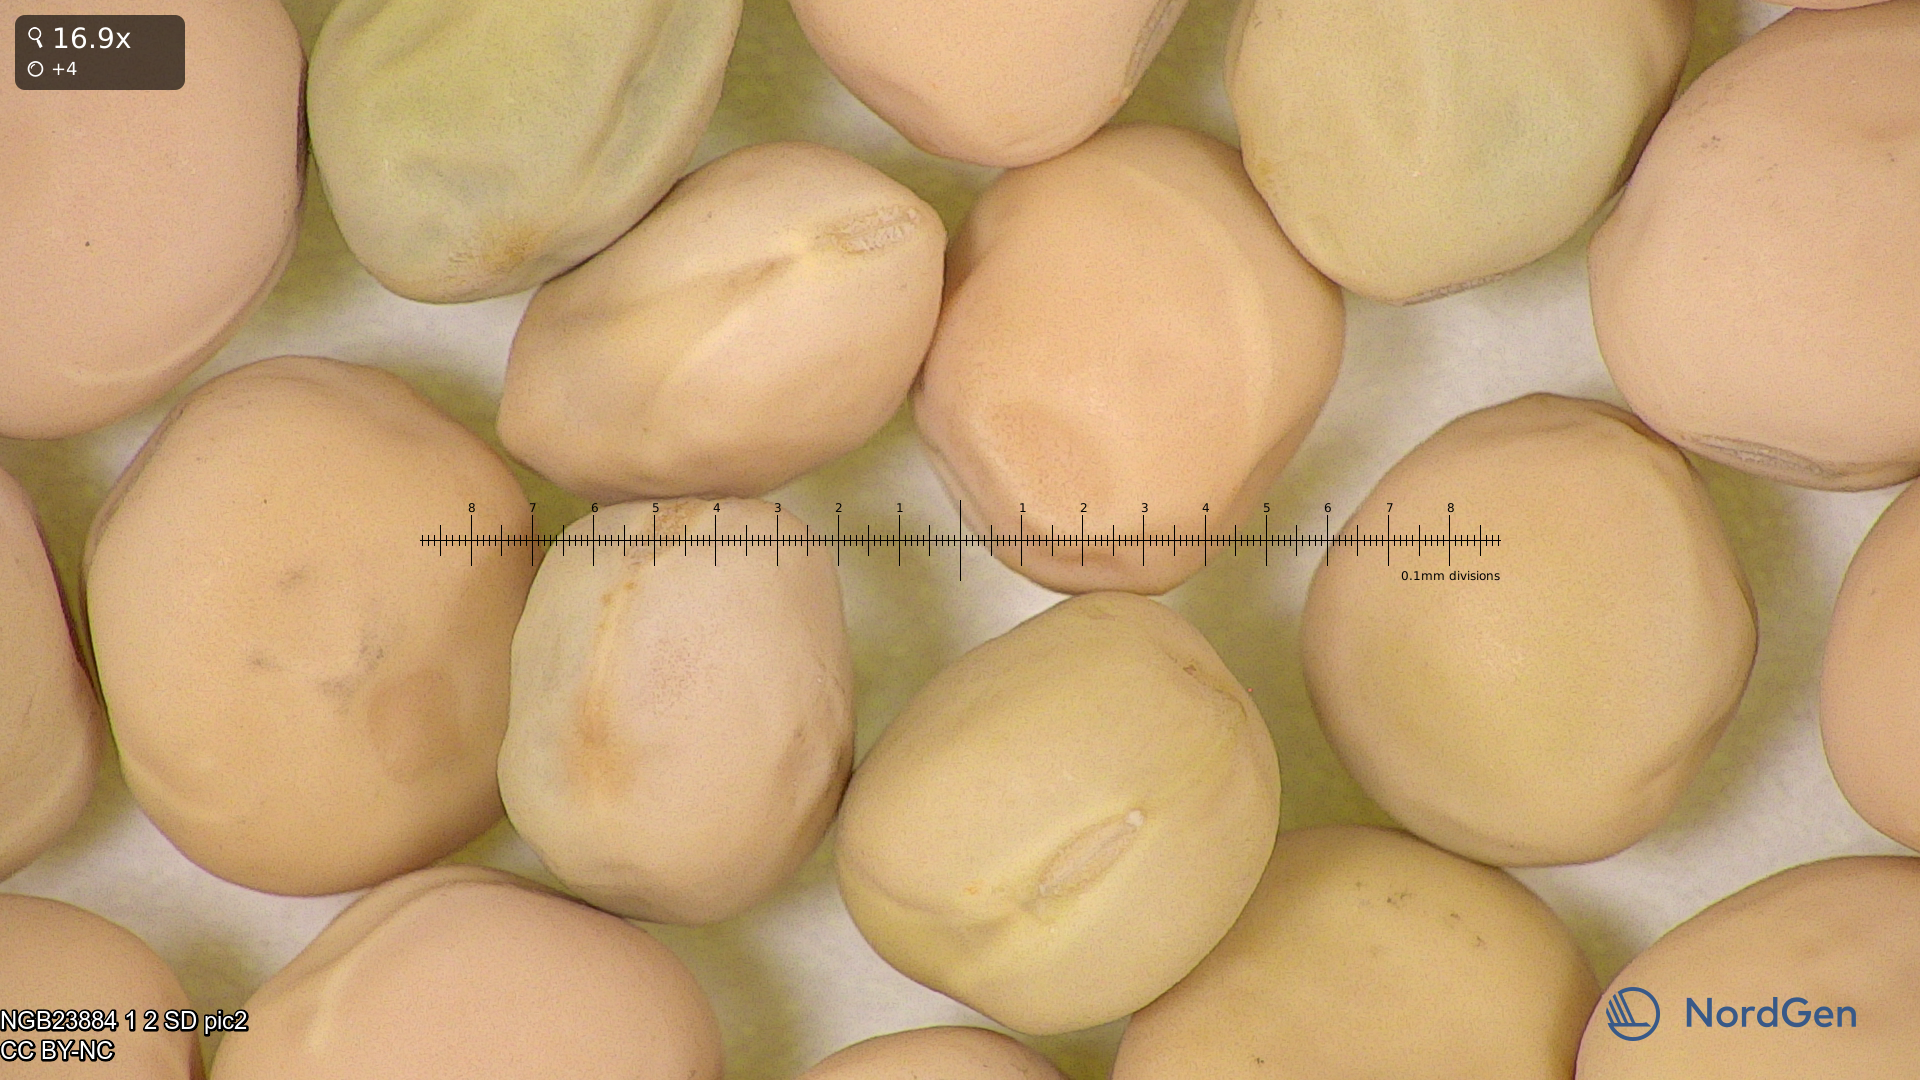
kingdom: Plantae
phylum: Tracheophyta
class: Magnoliopsida
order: Fabales
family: Fabaceae
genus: Lathyrus
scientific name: Lathyrus oleraceus
